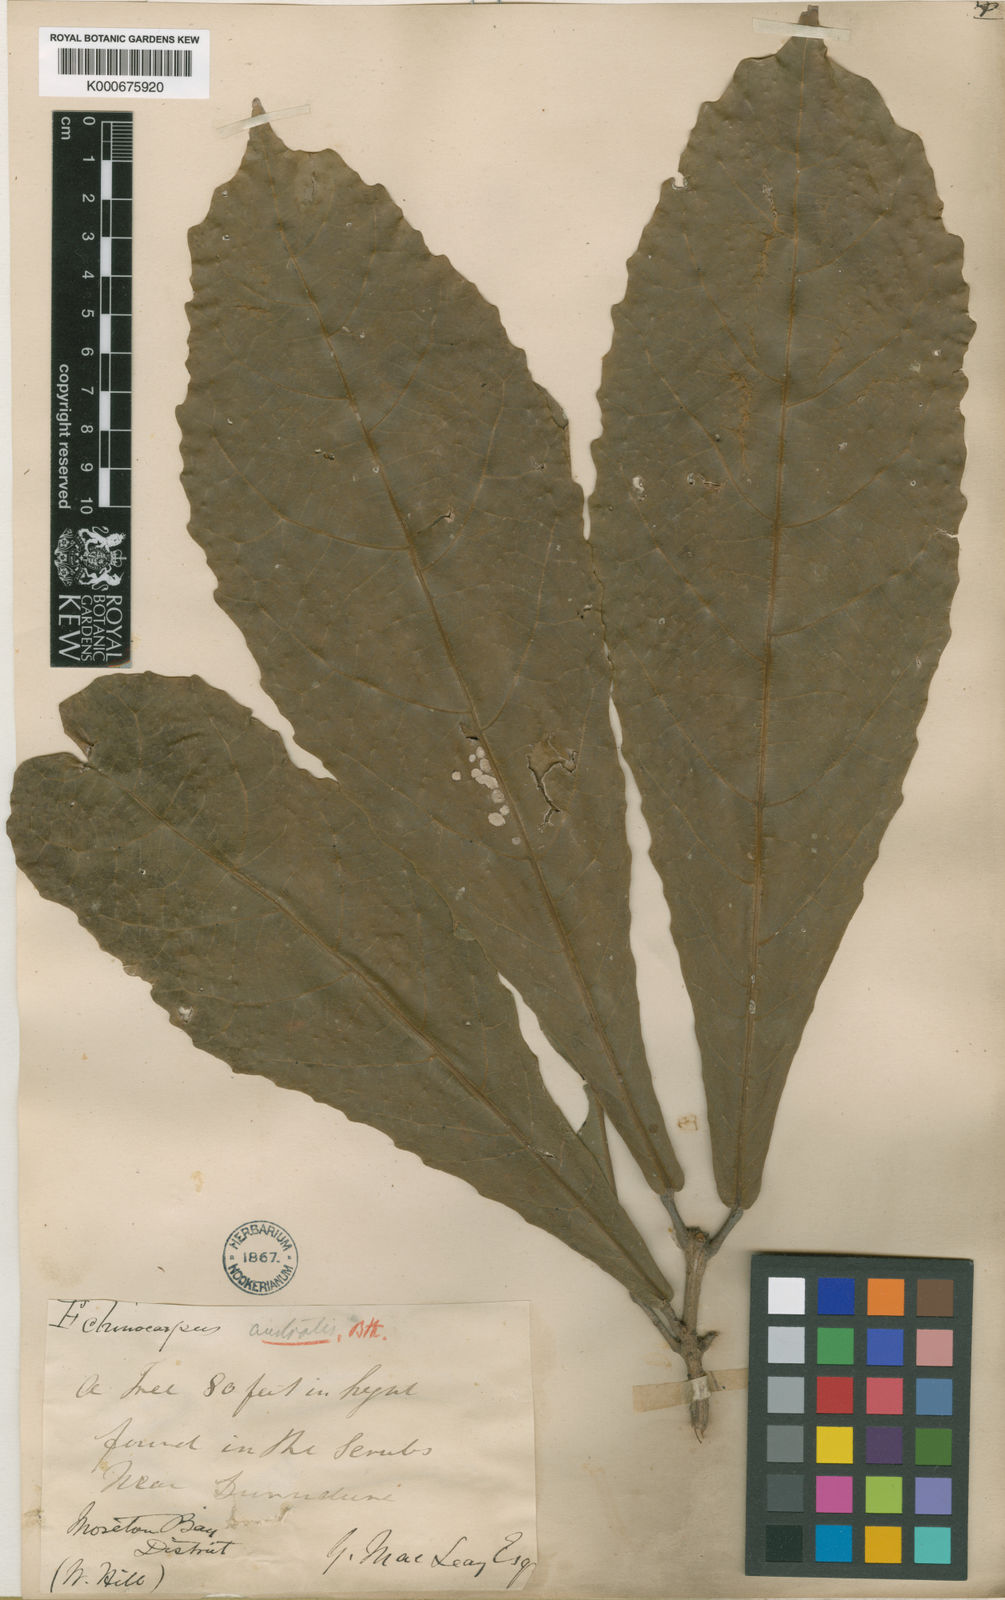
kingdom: Plantae
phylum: Tracheophyta
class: Magnoliopsida
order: Oxalidales
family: Elaeocarpaceae
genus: Sloanea
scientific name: Sloanea australis
